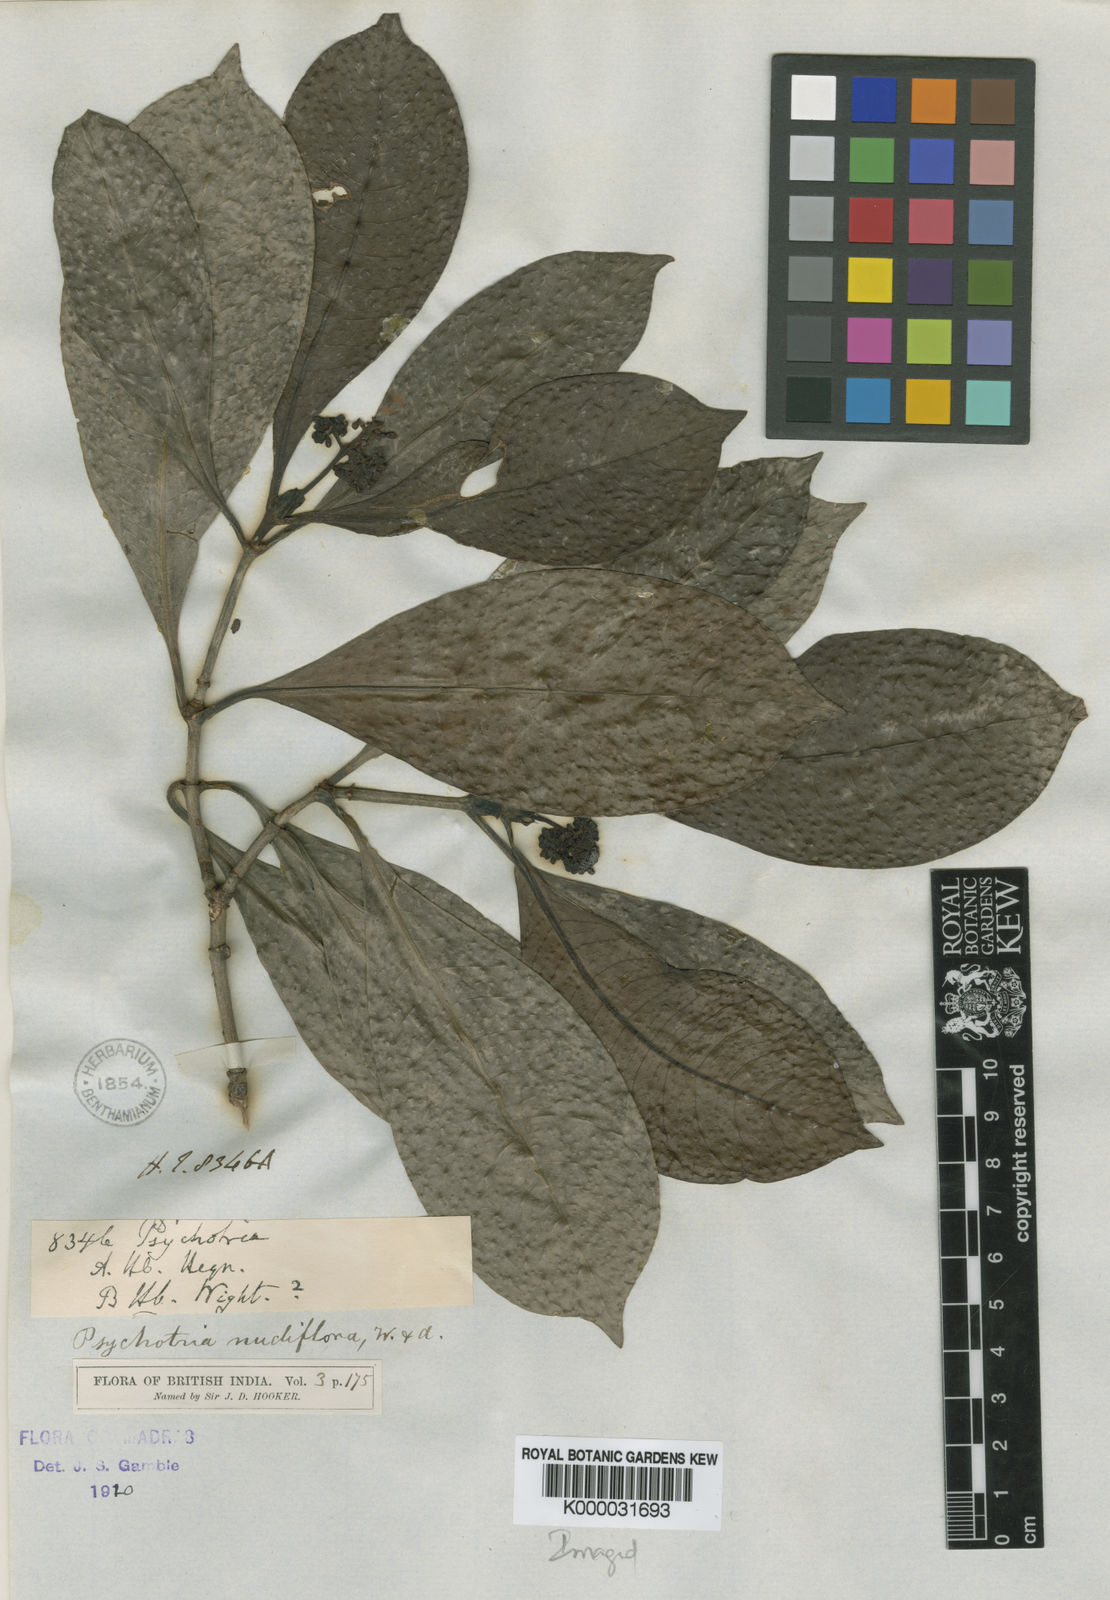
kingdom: Plantae
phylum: Tracheophyta
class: Magnoliopsida
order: Gentianales
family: Rubiaceae
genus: Psychotria
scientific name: Psychotria nudiflora
